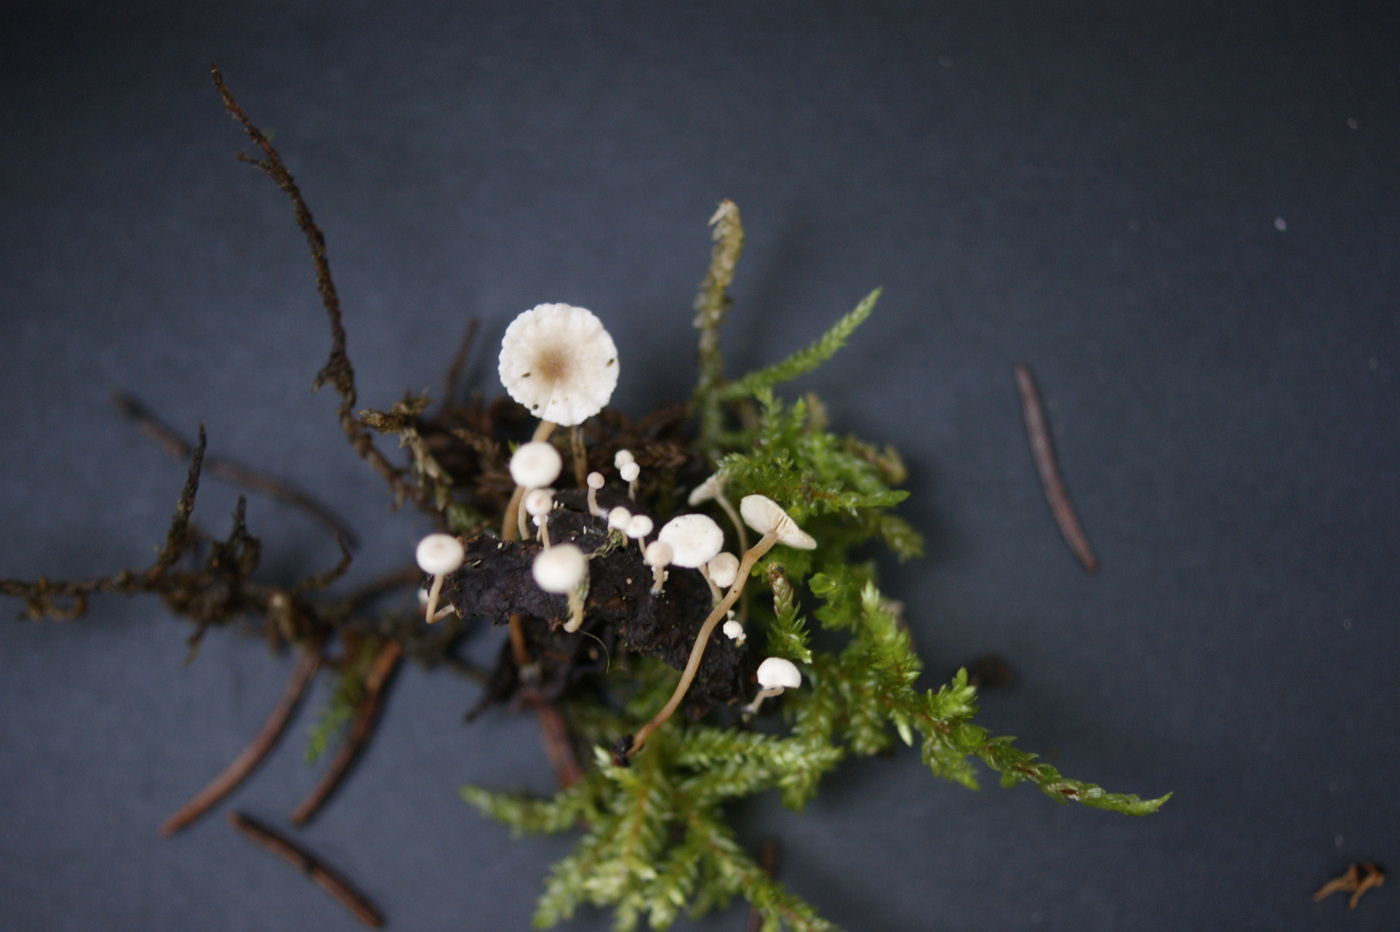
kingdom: Fungi
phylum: Basidiomycota
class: Agaricomycetes
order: Agaricales
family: Tricholomataceae
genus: Collybia
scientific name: Collybia cirrhata
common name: silke-lighat
